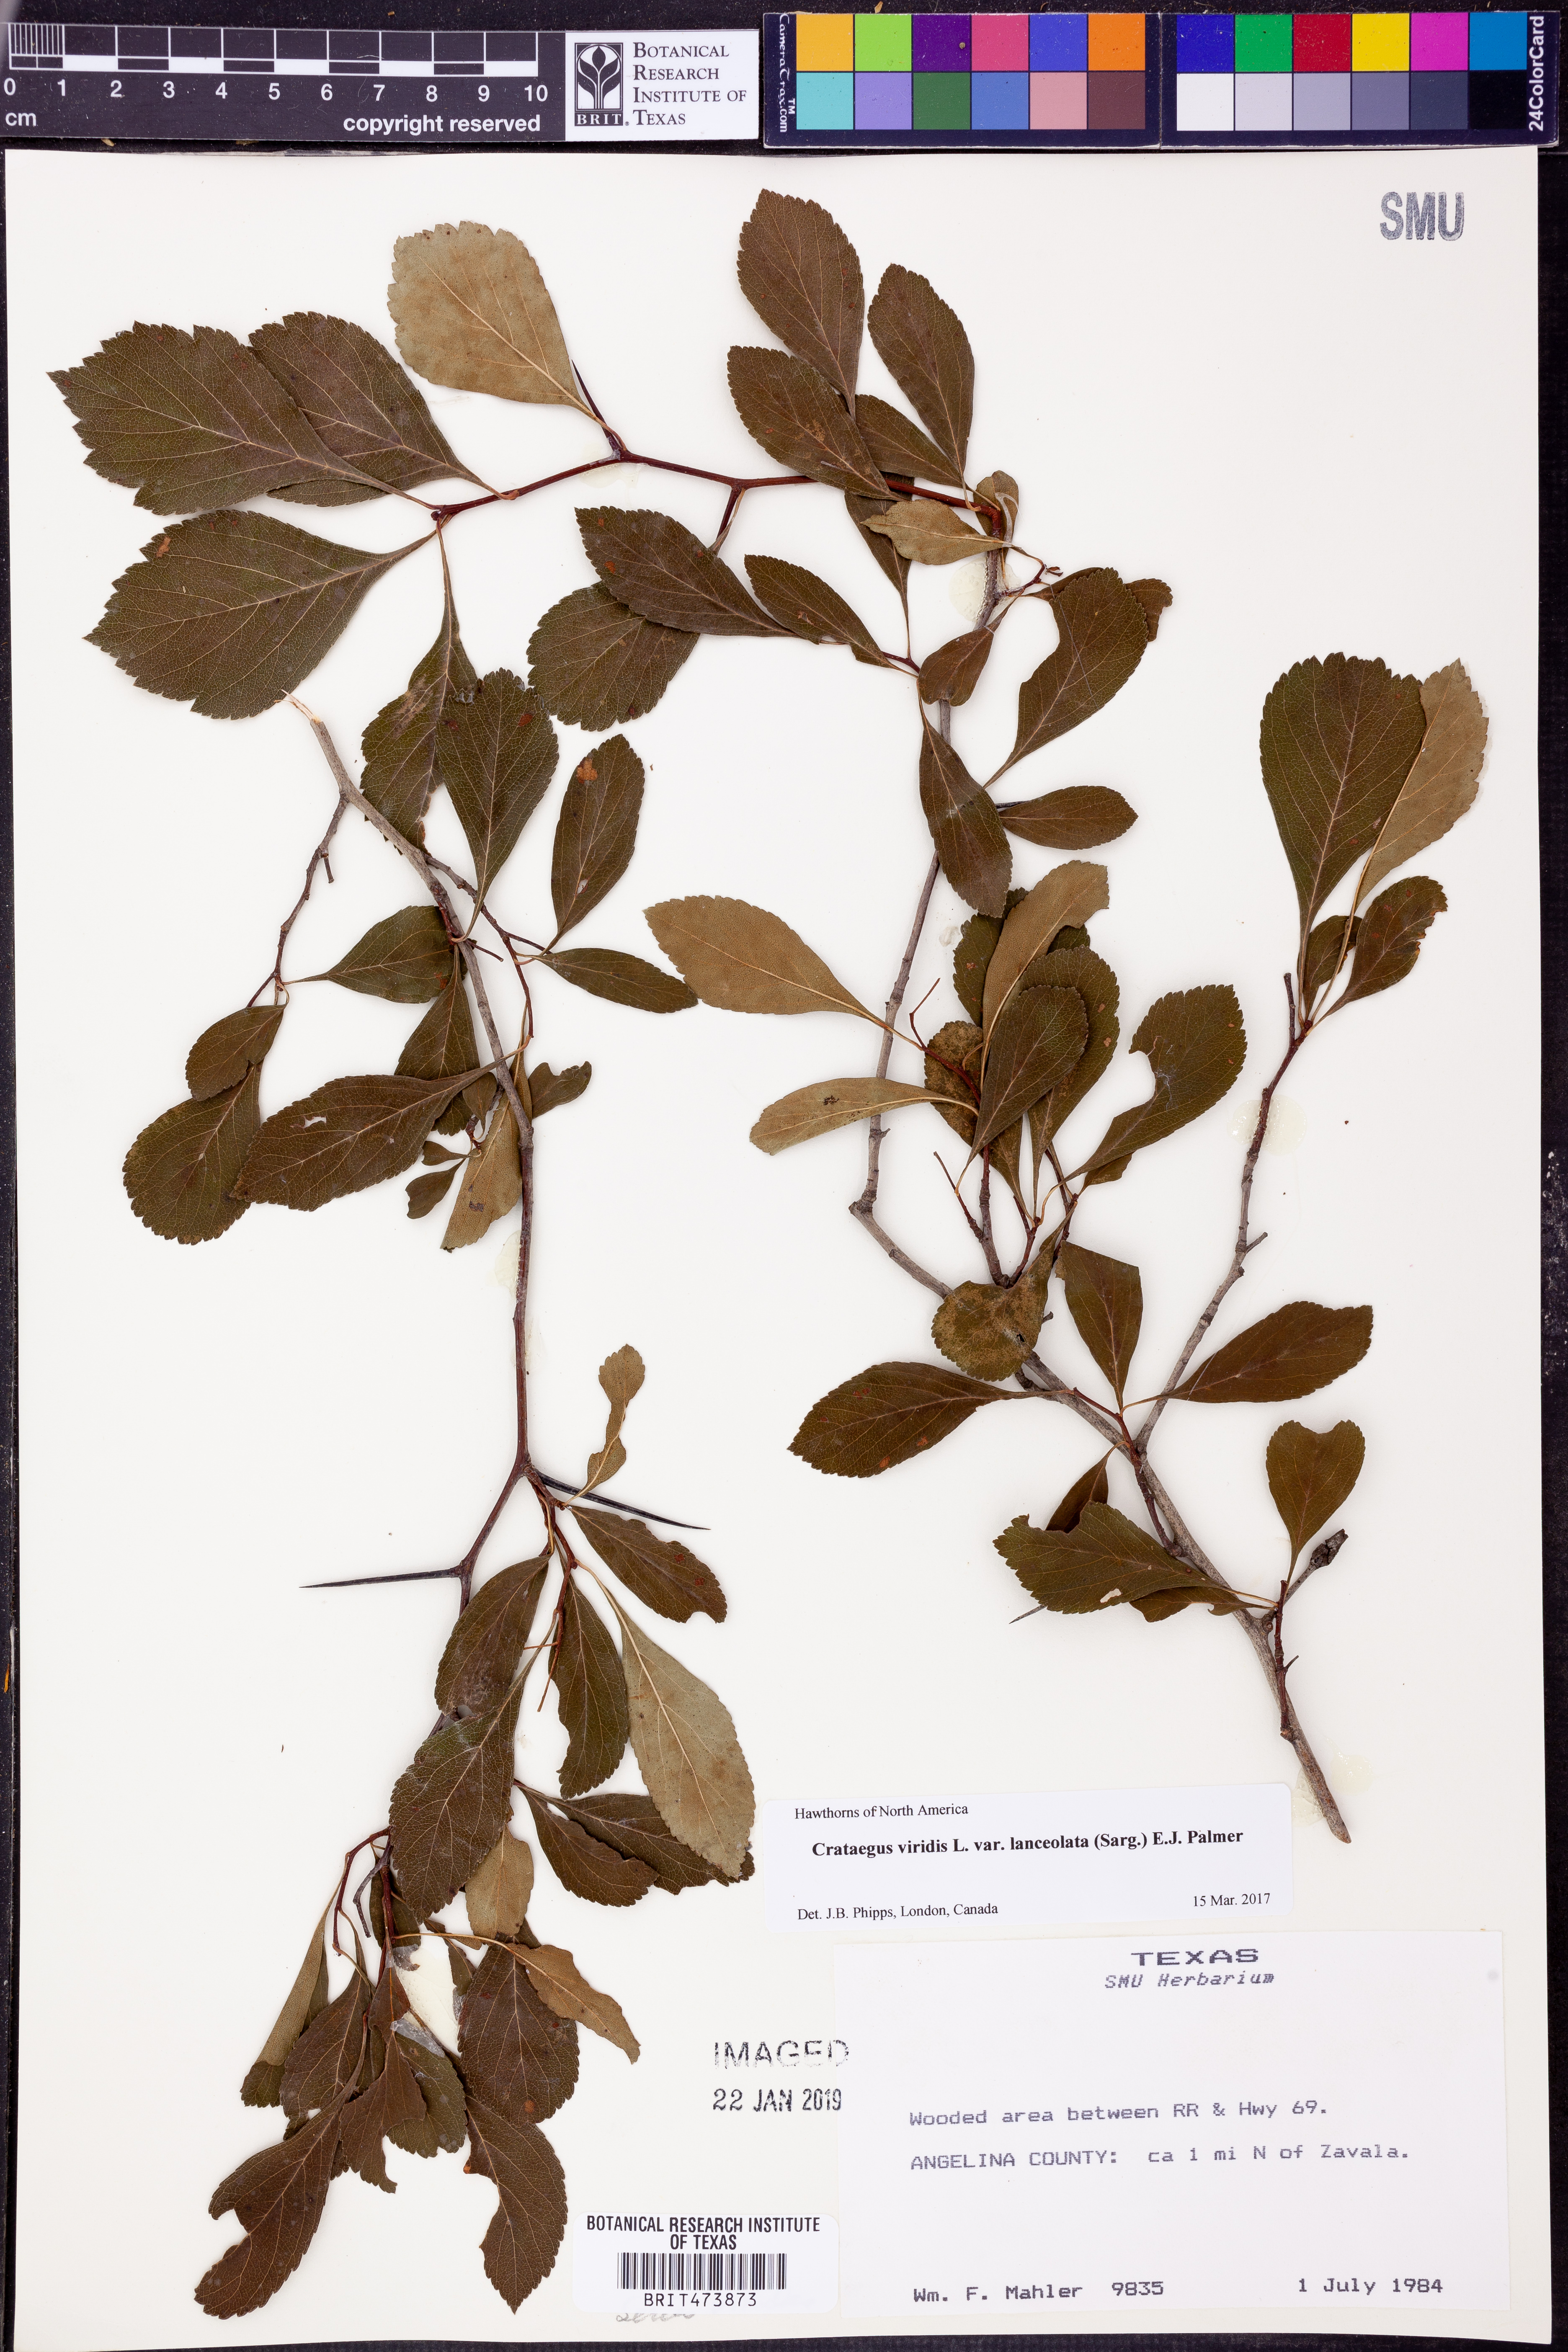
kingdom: Plantae
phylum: Tracheophyta
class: Magnoliopsida
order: Rosales
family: Rosaceae
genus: Crataegus
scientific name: Crataegus viridis
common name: Southernthorn
